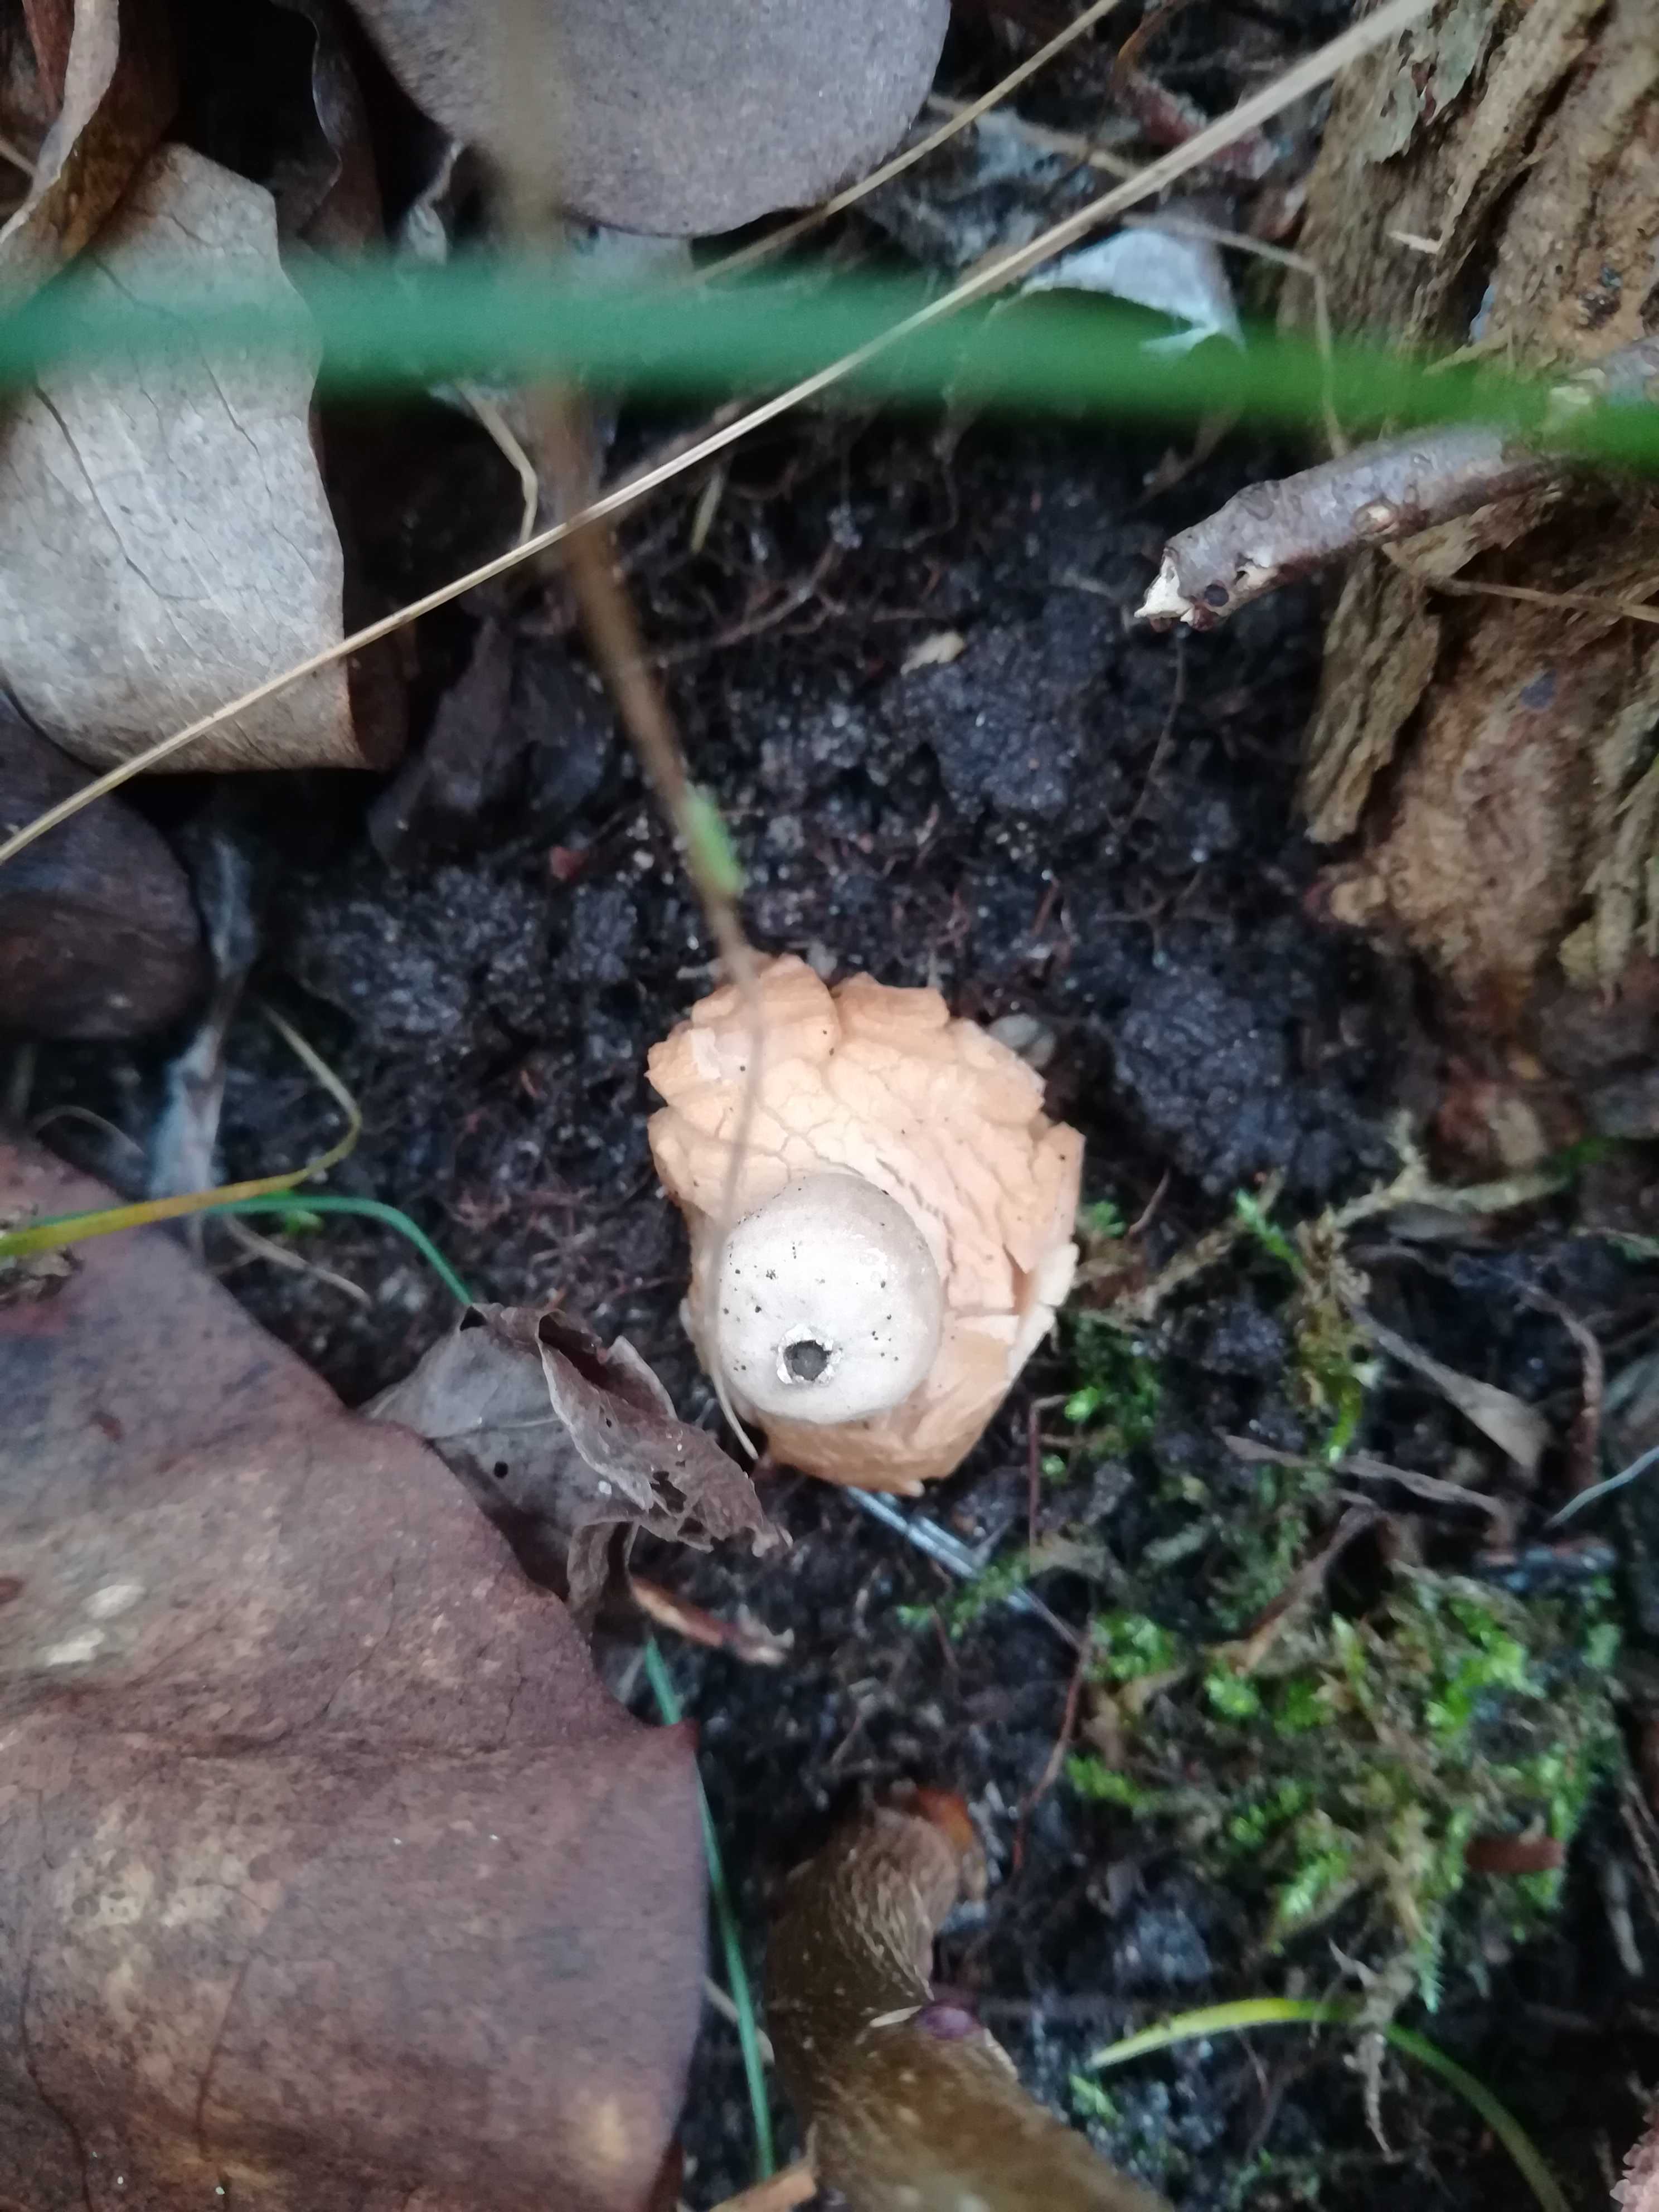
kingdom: Fungi
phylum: Basidiomycota
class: Agaricomycetes
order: Geastrales
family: Geastraceae
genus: Geastrum
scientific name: Geastrum fimbriatum
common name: frynset stjernebold
